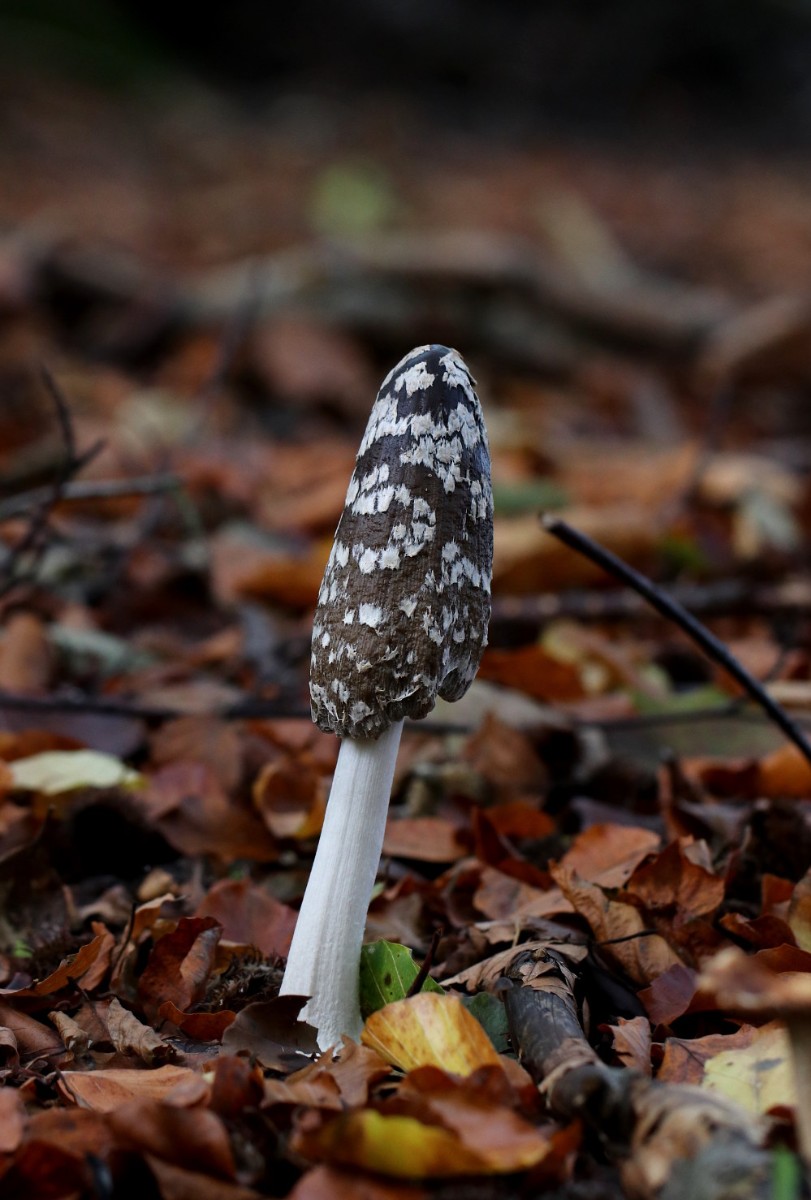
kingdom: Fungi
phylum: Basidiomycota
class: Agaricomycetes
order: Agaricales
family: Psathyrellaceae
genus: Coprinopsis
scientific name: Coprinopsis picacea
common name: skade-blækhat
